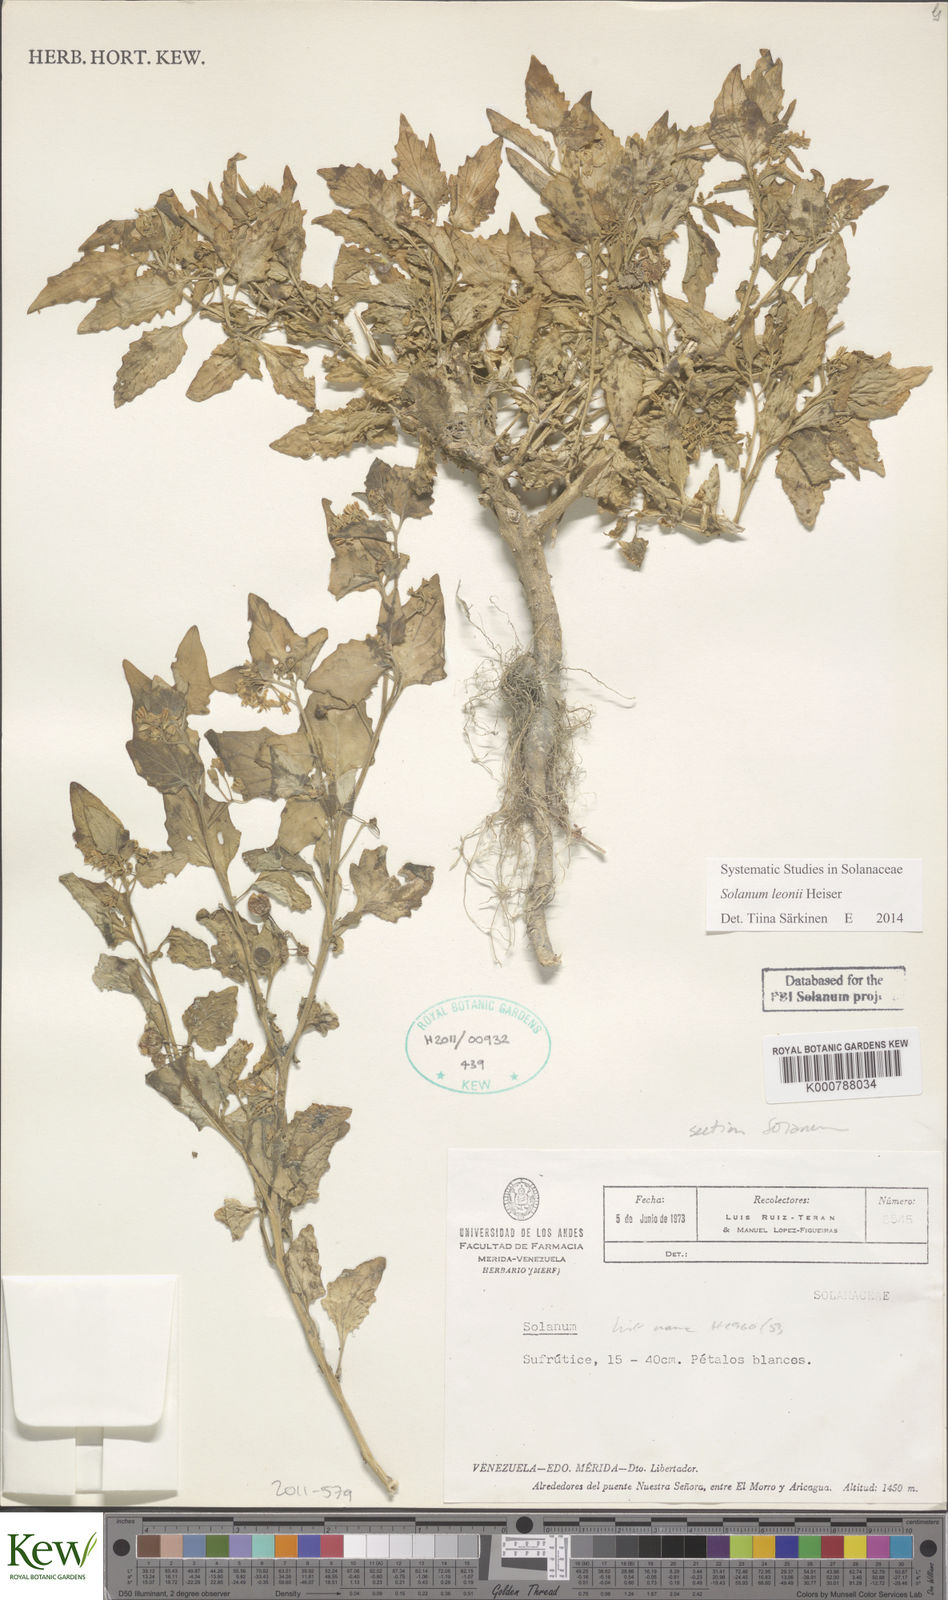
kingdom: Plantae
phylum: Tracheophyta
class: Magnoliopsida
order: Solanales
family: Solanaceae
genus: Solanum
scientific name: Solanum nigrescens
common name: Divine nightshade
